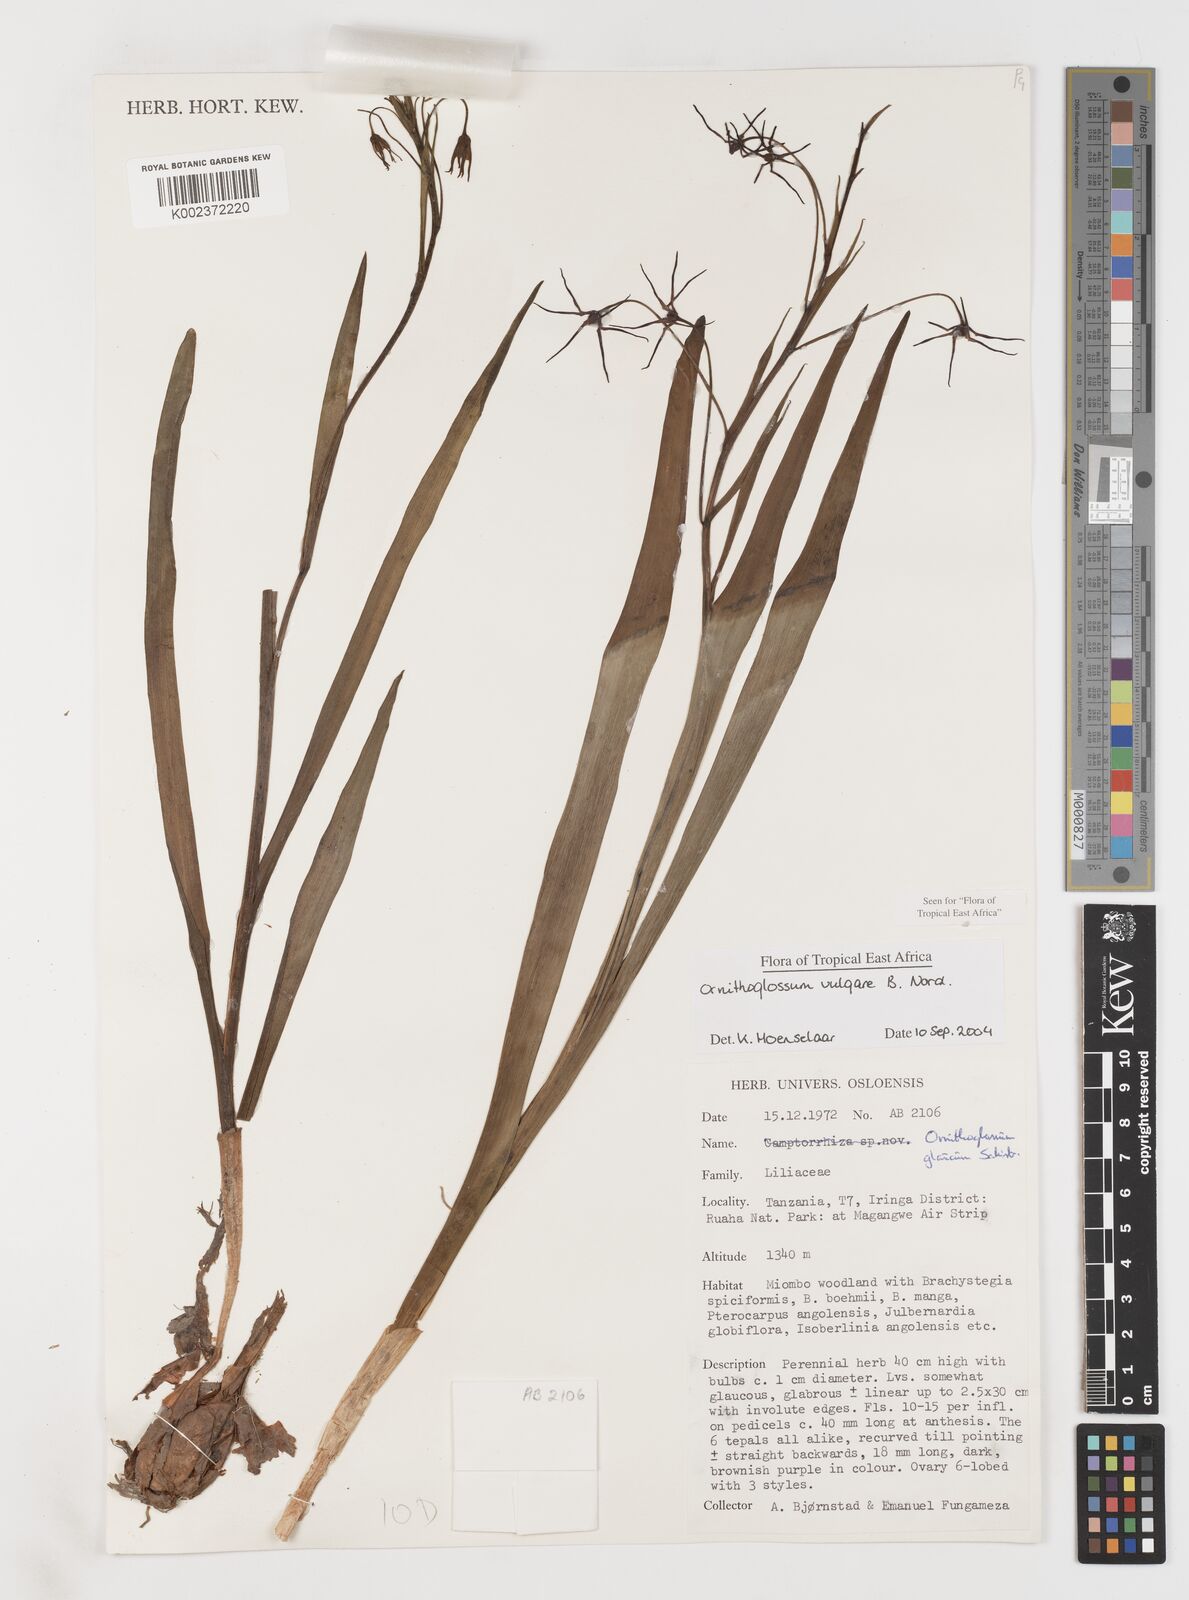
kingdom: Plantae
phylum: Tracheophyta
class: Liliopsida
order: Liliales
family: Colchicaceae
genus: Ornithoglossum
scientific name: Ornithoglossum vulgare
